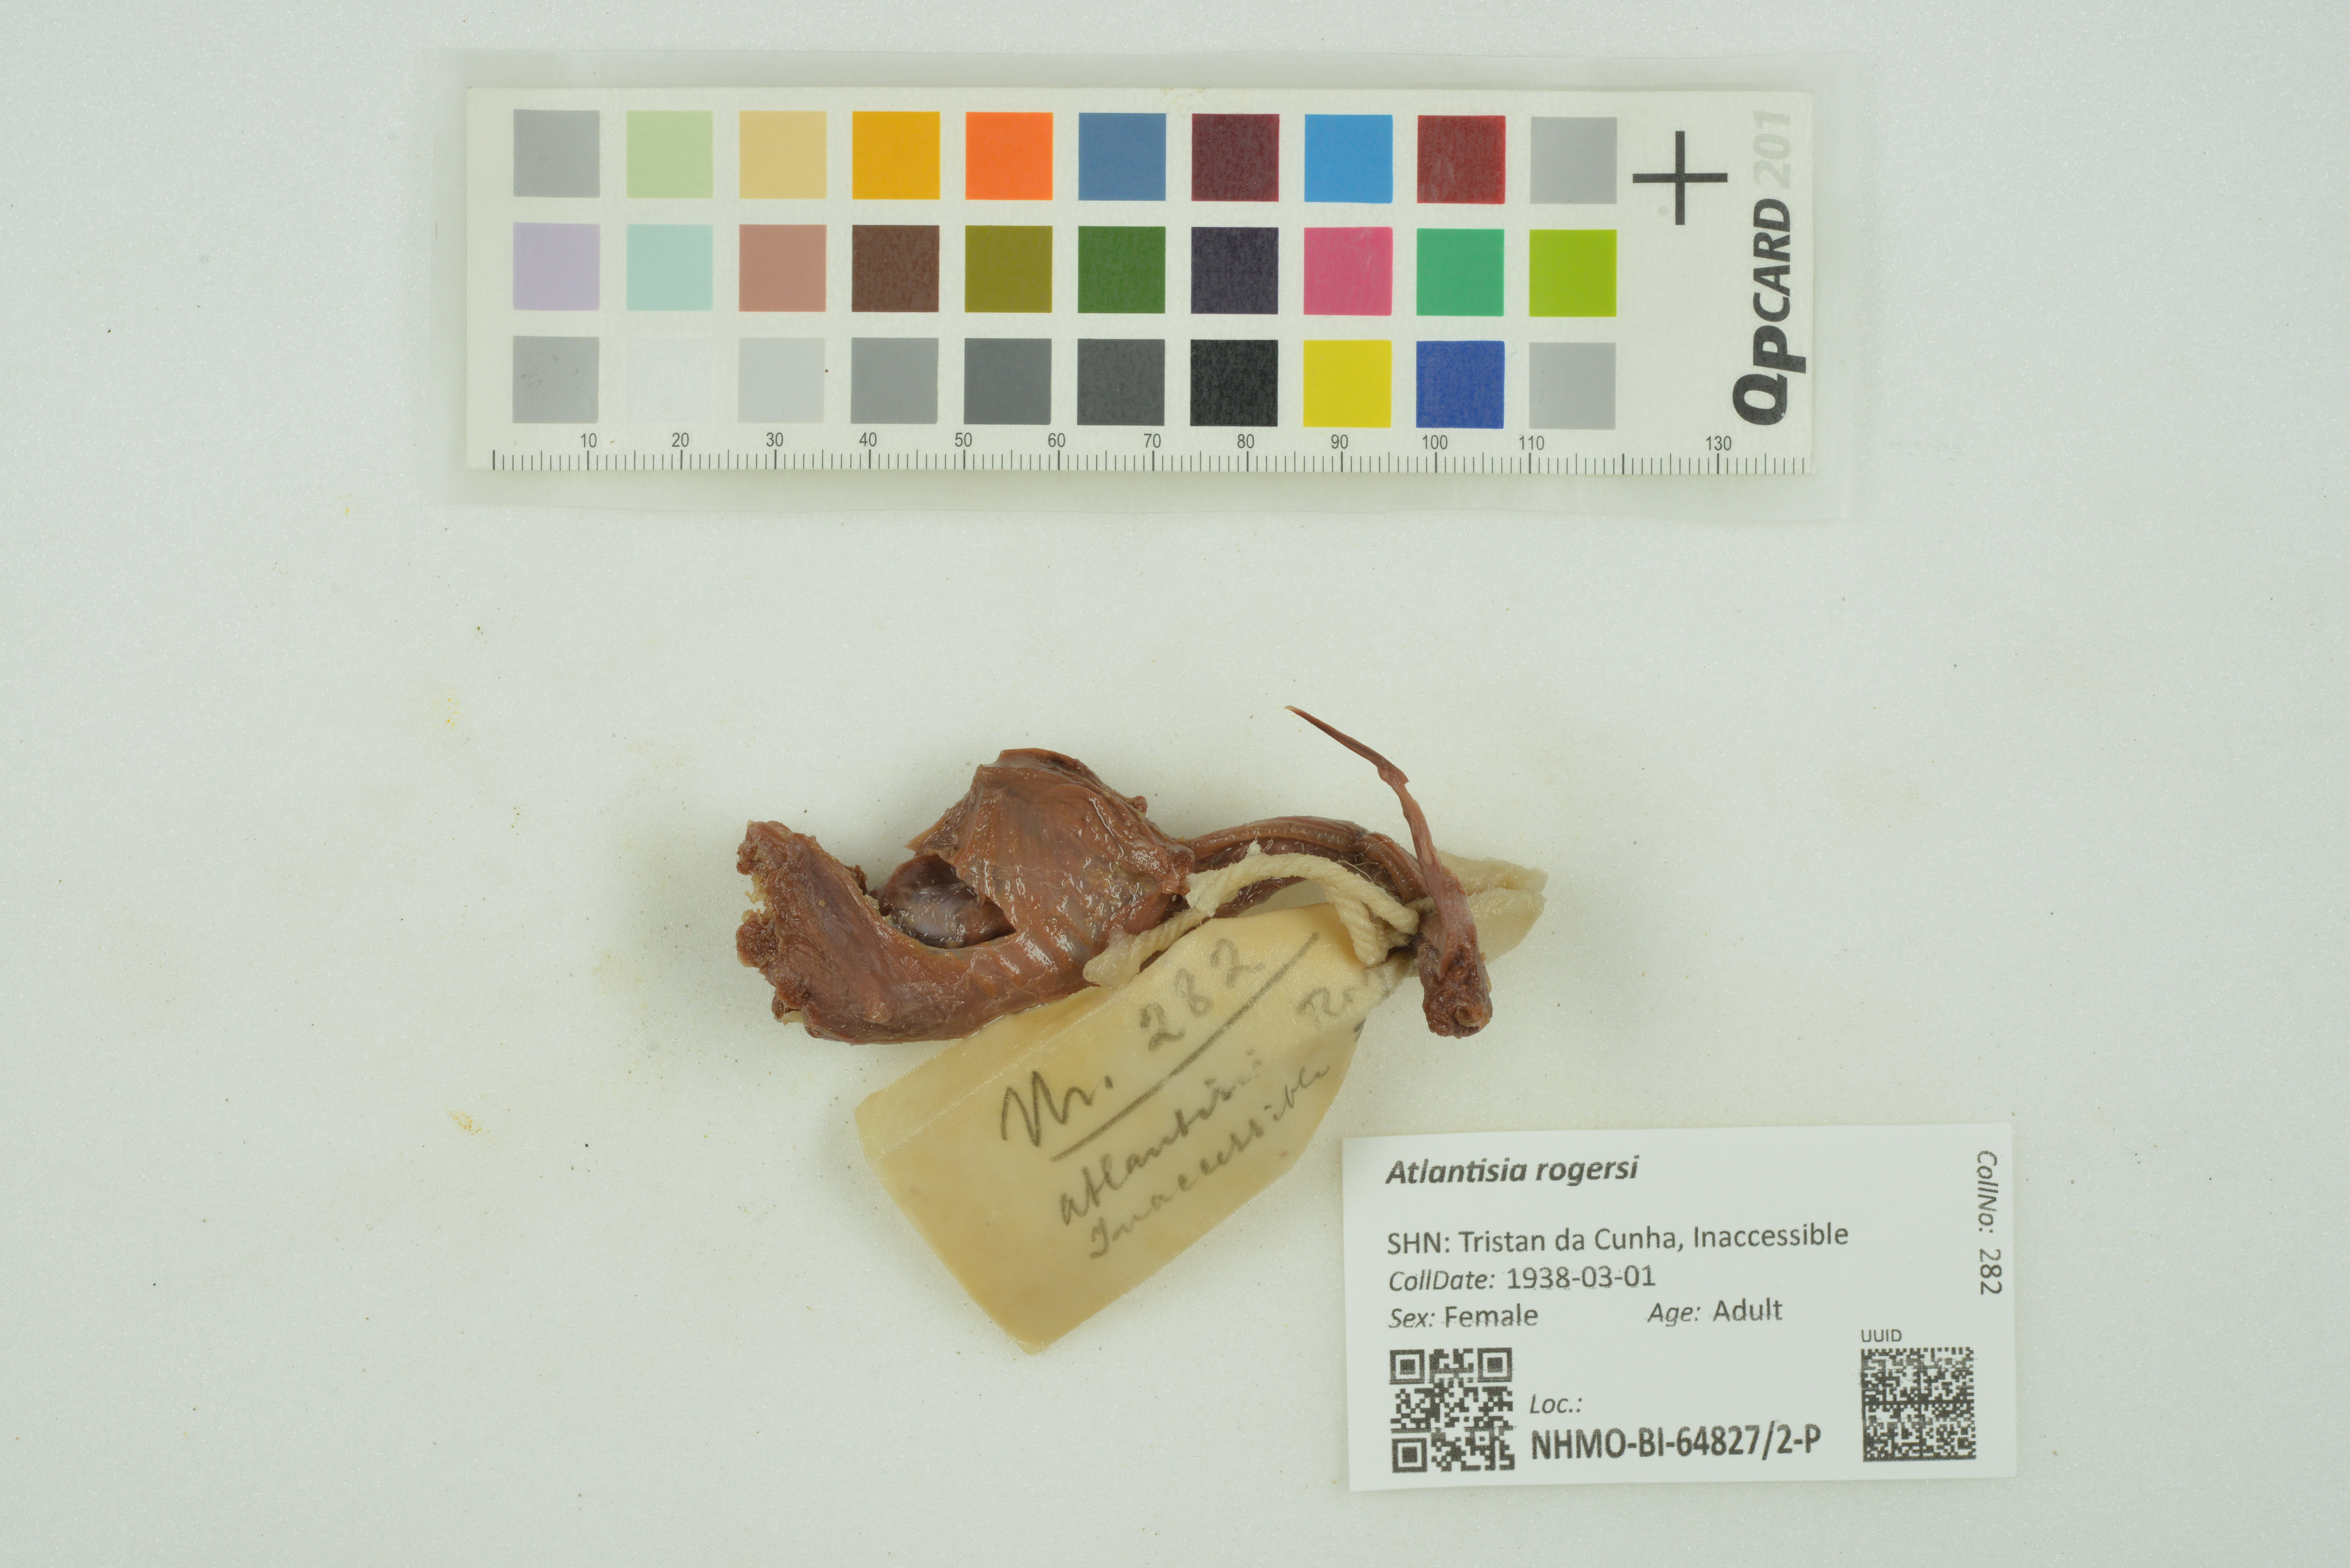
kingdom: Animalia
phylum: Chordata
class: Aves
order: Gruiformes
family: Rallidae
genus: Atlantisia
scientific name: Atlantisia rogersi
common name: Inaccessible island rail
